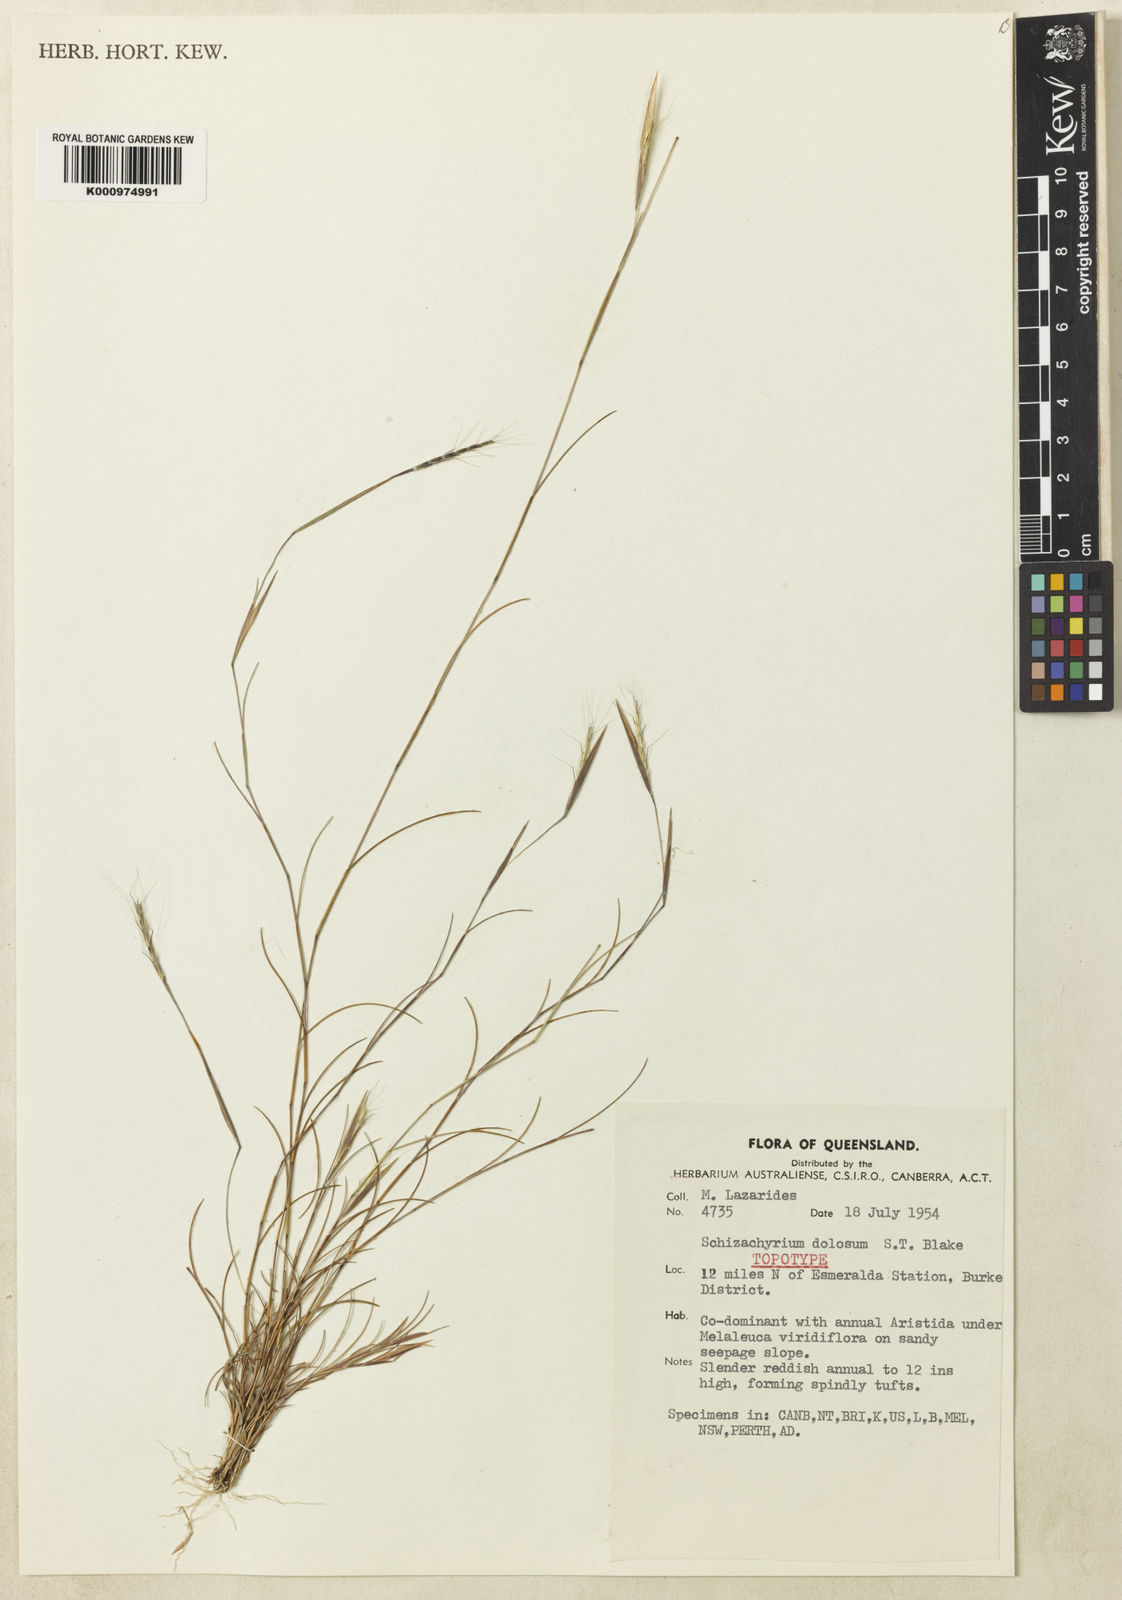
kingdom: Plantae
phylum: Tracheophyta
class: Liliopsida
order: Poales
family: Poaceae
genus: Schizachyrium
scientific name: Schizachyrium dolosum
